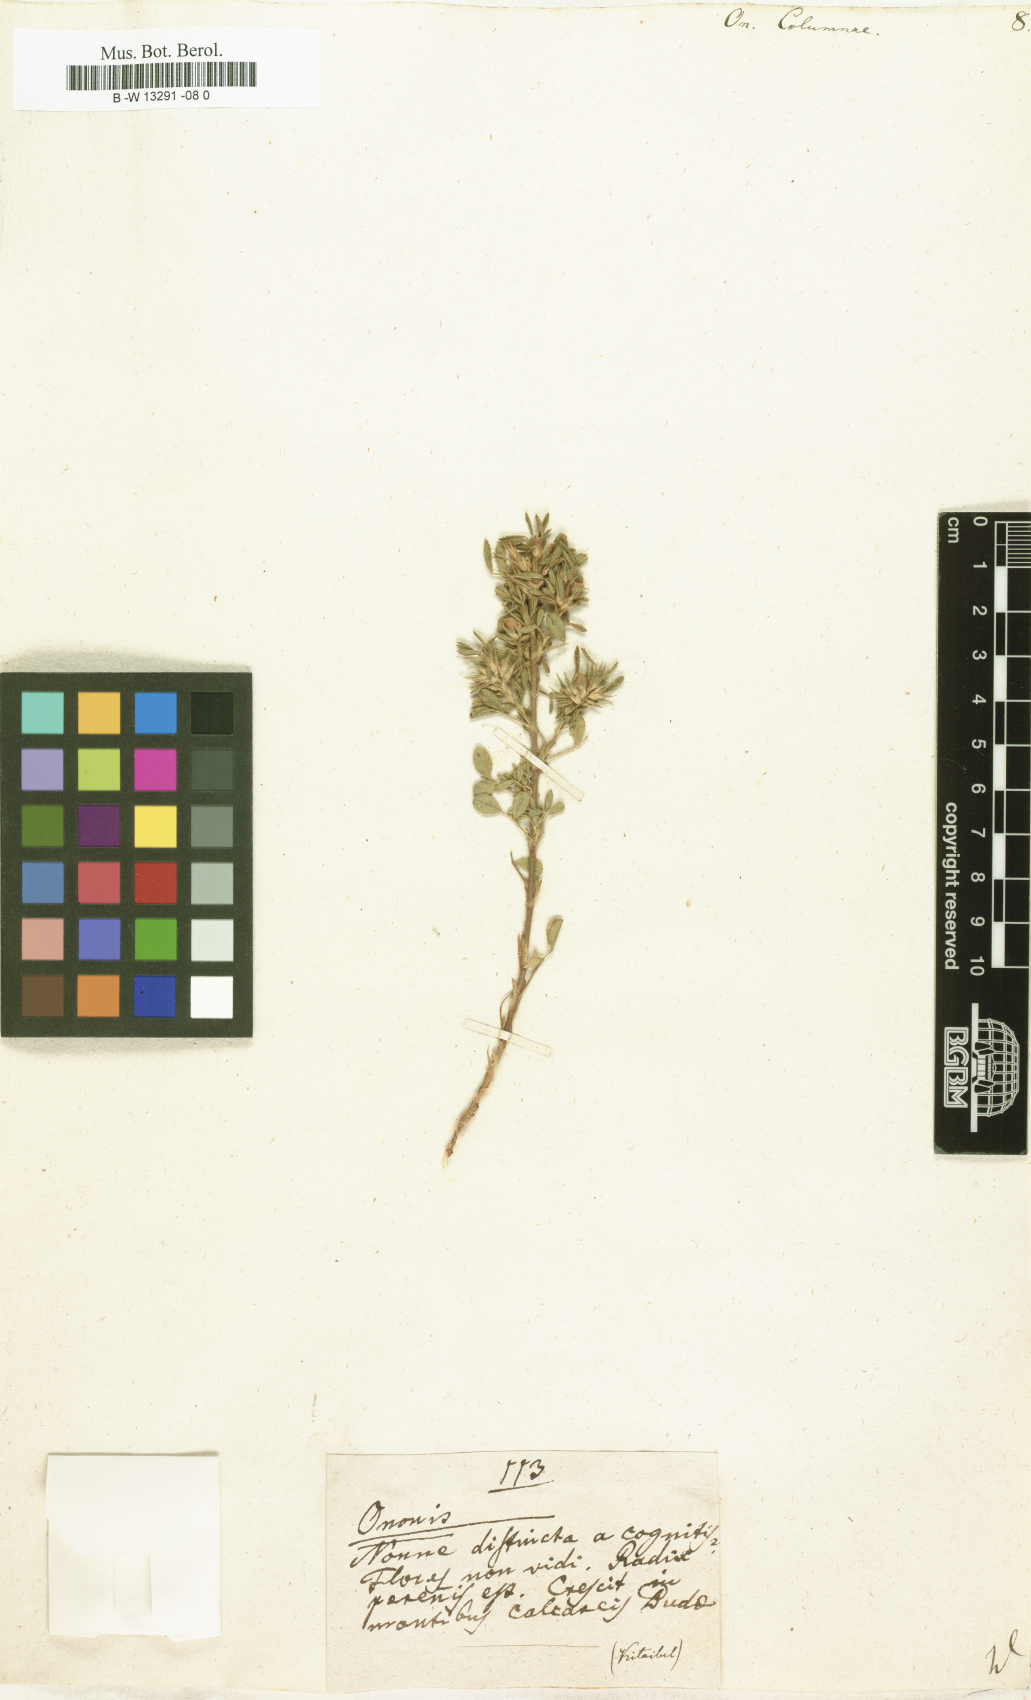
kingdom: Plantae
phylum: Tracheophyta
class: Magnoliopsida
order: Fabales
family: Fabaceae
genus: Ononis
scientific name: Ononis pusilla
